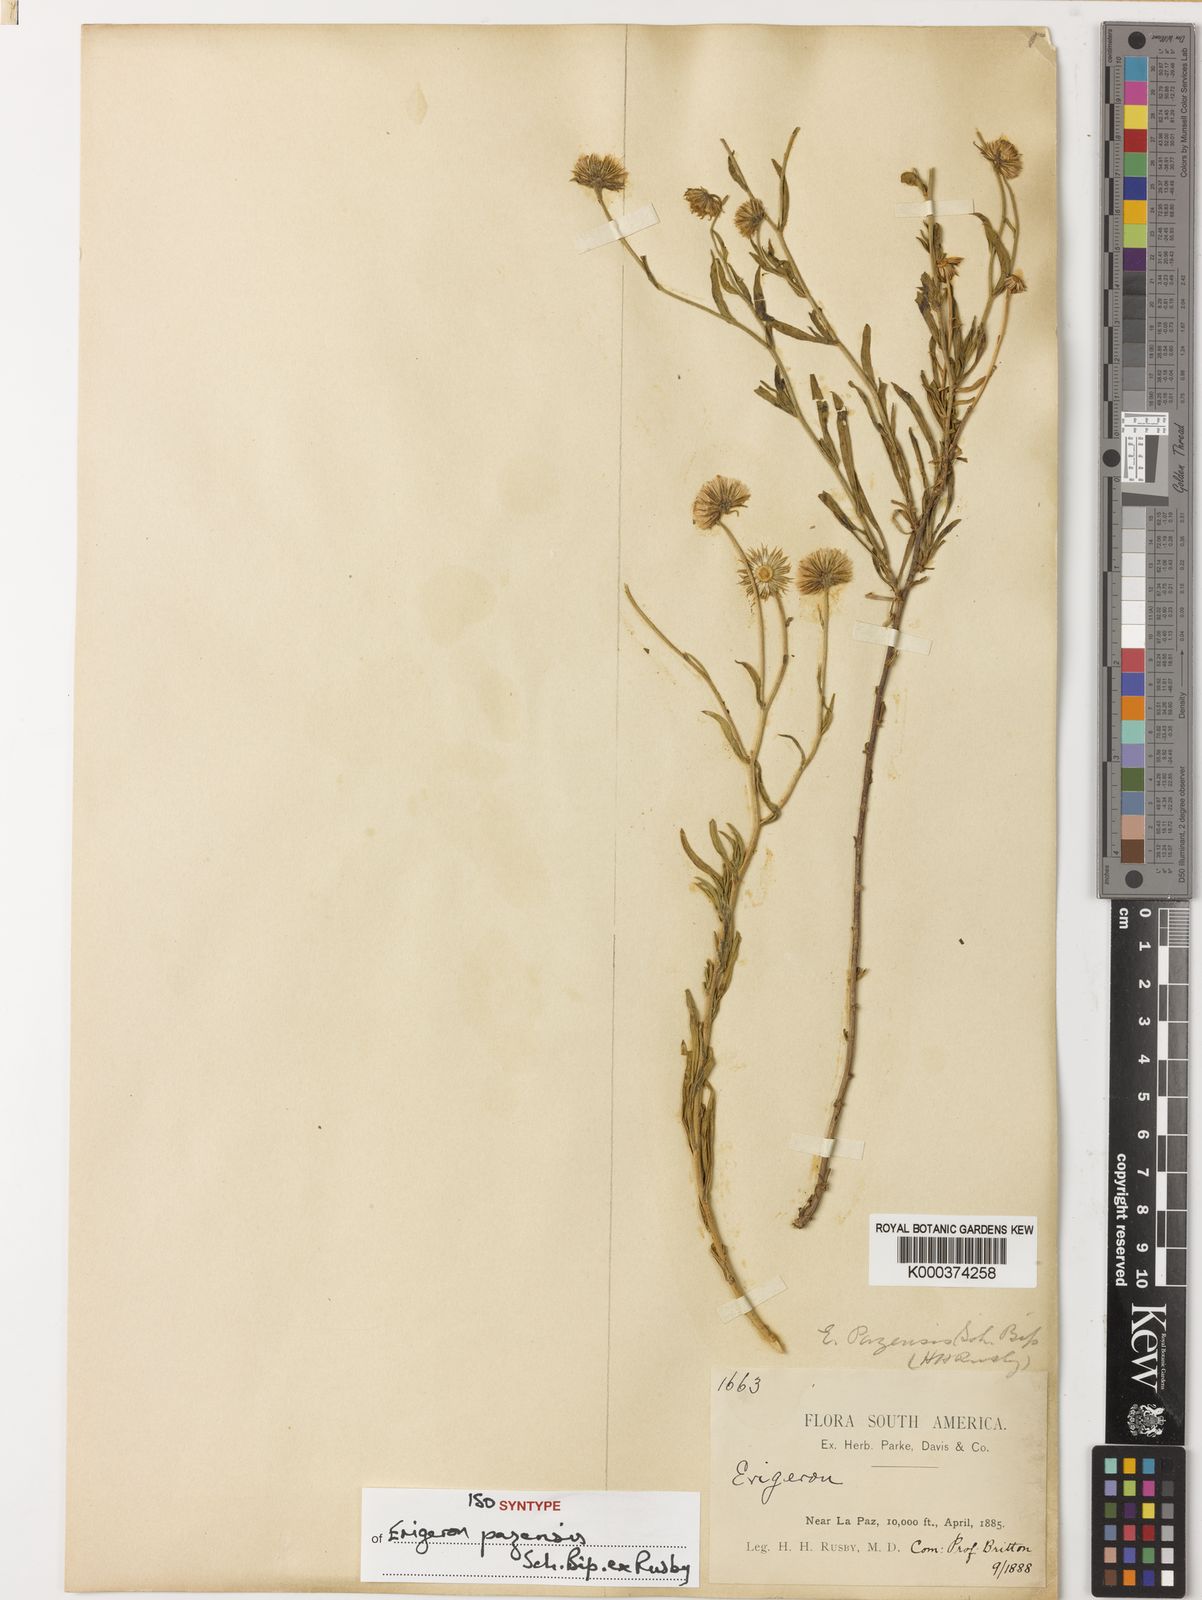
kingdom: Plantae
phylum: Tracheophyta
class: Magnoliopsida
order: Asterales
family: Asteraceae
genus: Erigeron
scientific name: Erigeron
